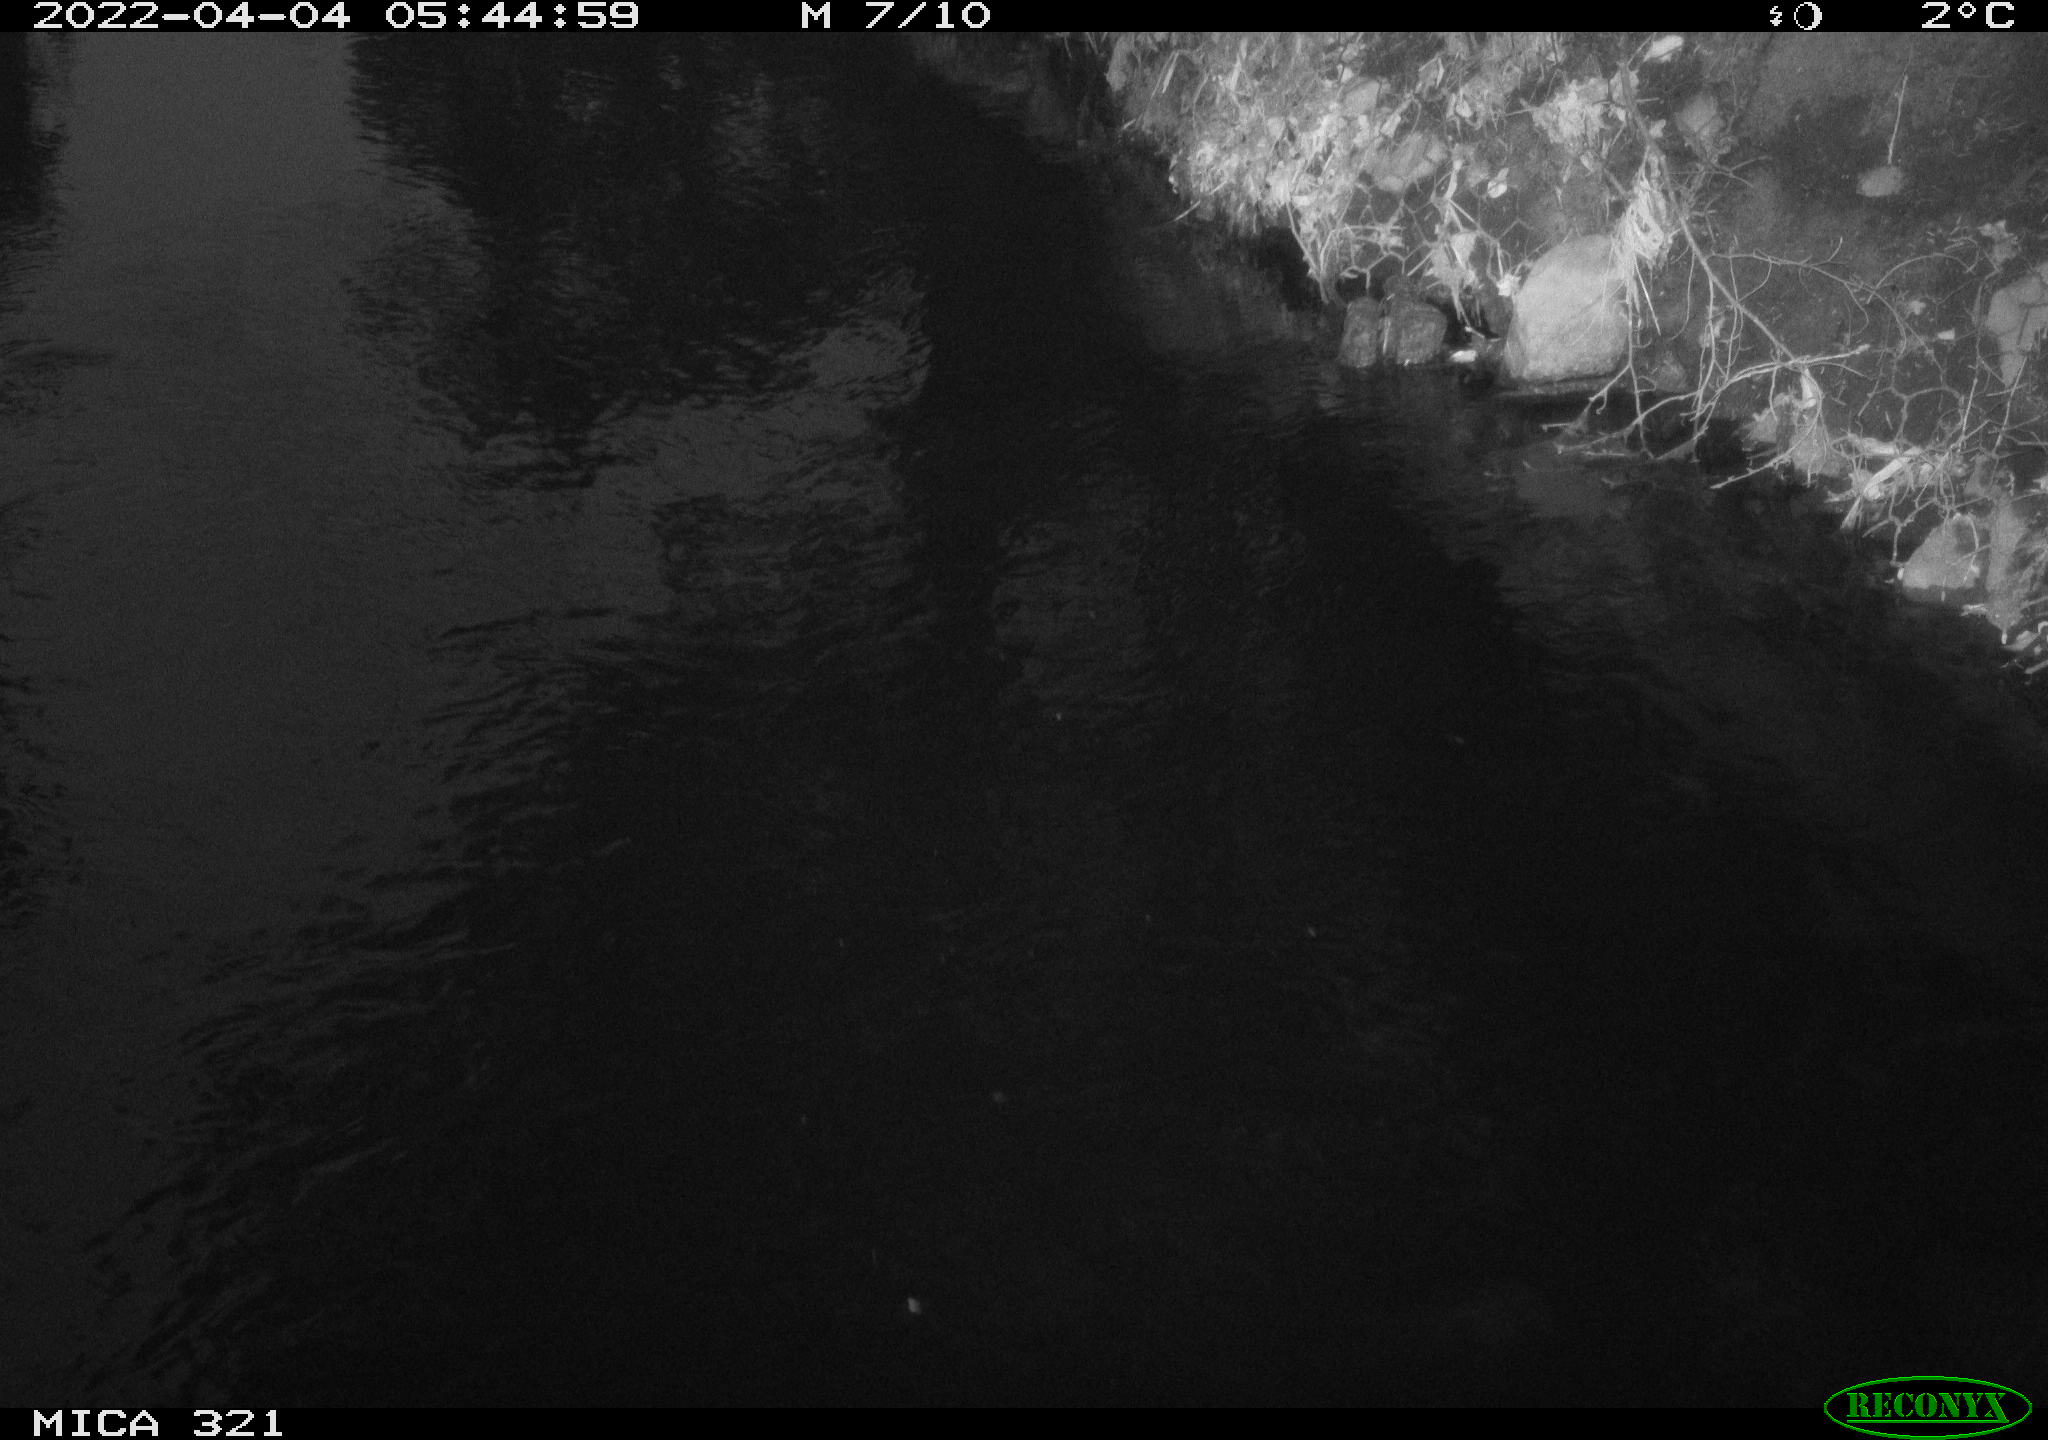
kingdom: Animalia
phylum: Chordata
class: Aves
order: Anseriformes
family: Anatidae
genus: Anas
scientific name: Anas platyrhynchos
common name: Mallard
